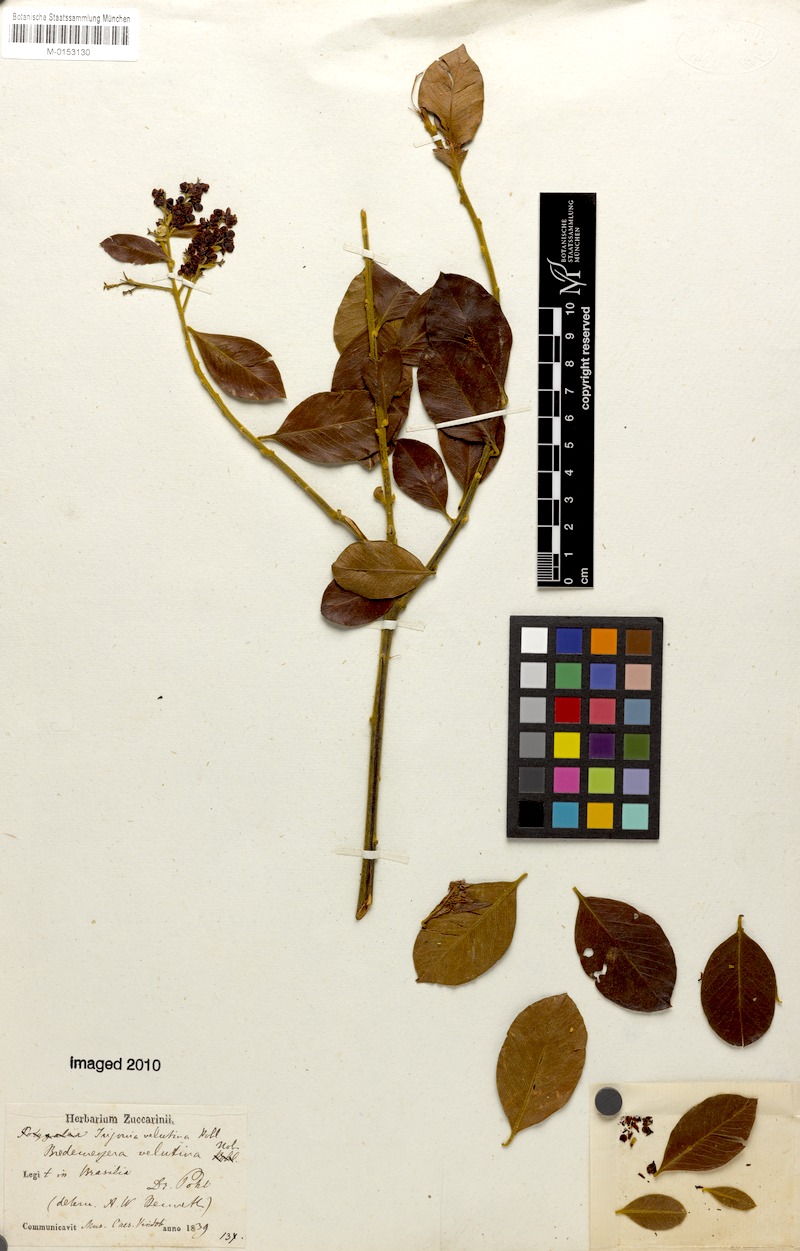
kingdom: Plantae
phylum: Tracheophyta
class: Magnoliopsida
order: Fabales
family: Polygalaceae
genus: Bredemeyera
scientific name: Bredemeyera hebeclada
